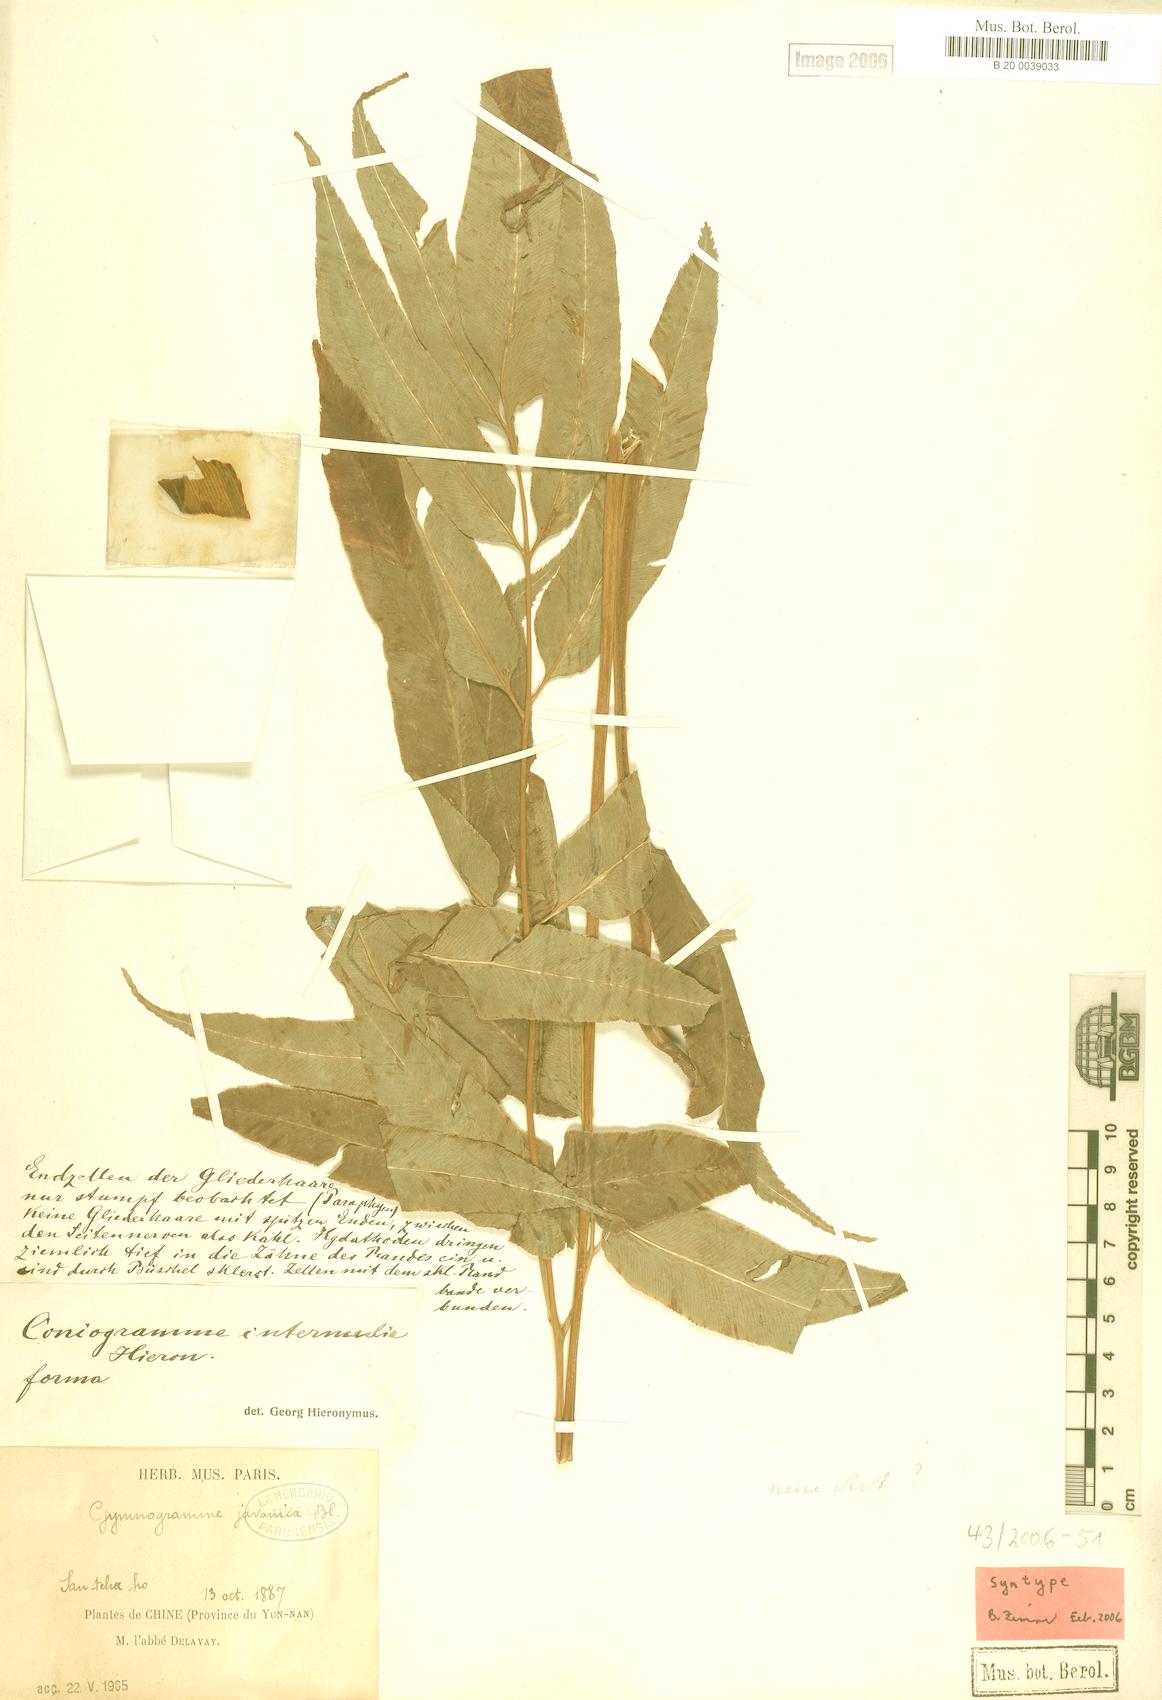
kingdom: Plantae
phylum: Tracheophyta
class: Polypodiopsida
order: Polypodiales
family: Pteridaceae
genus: Coniogramme
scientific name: Coniogramme intermedia
